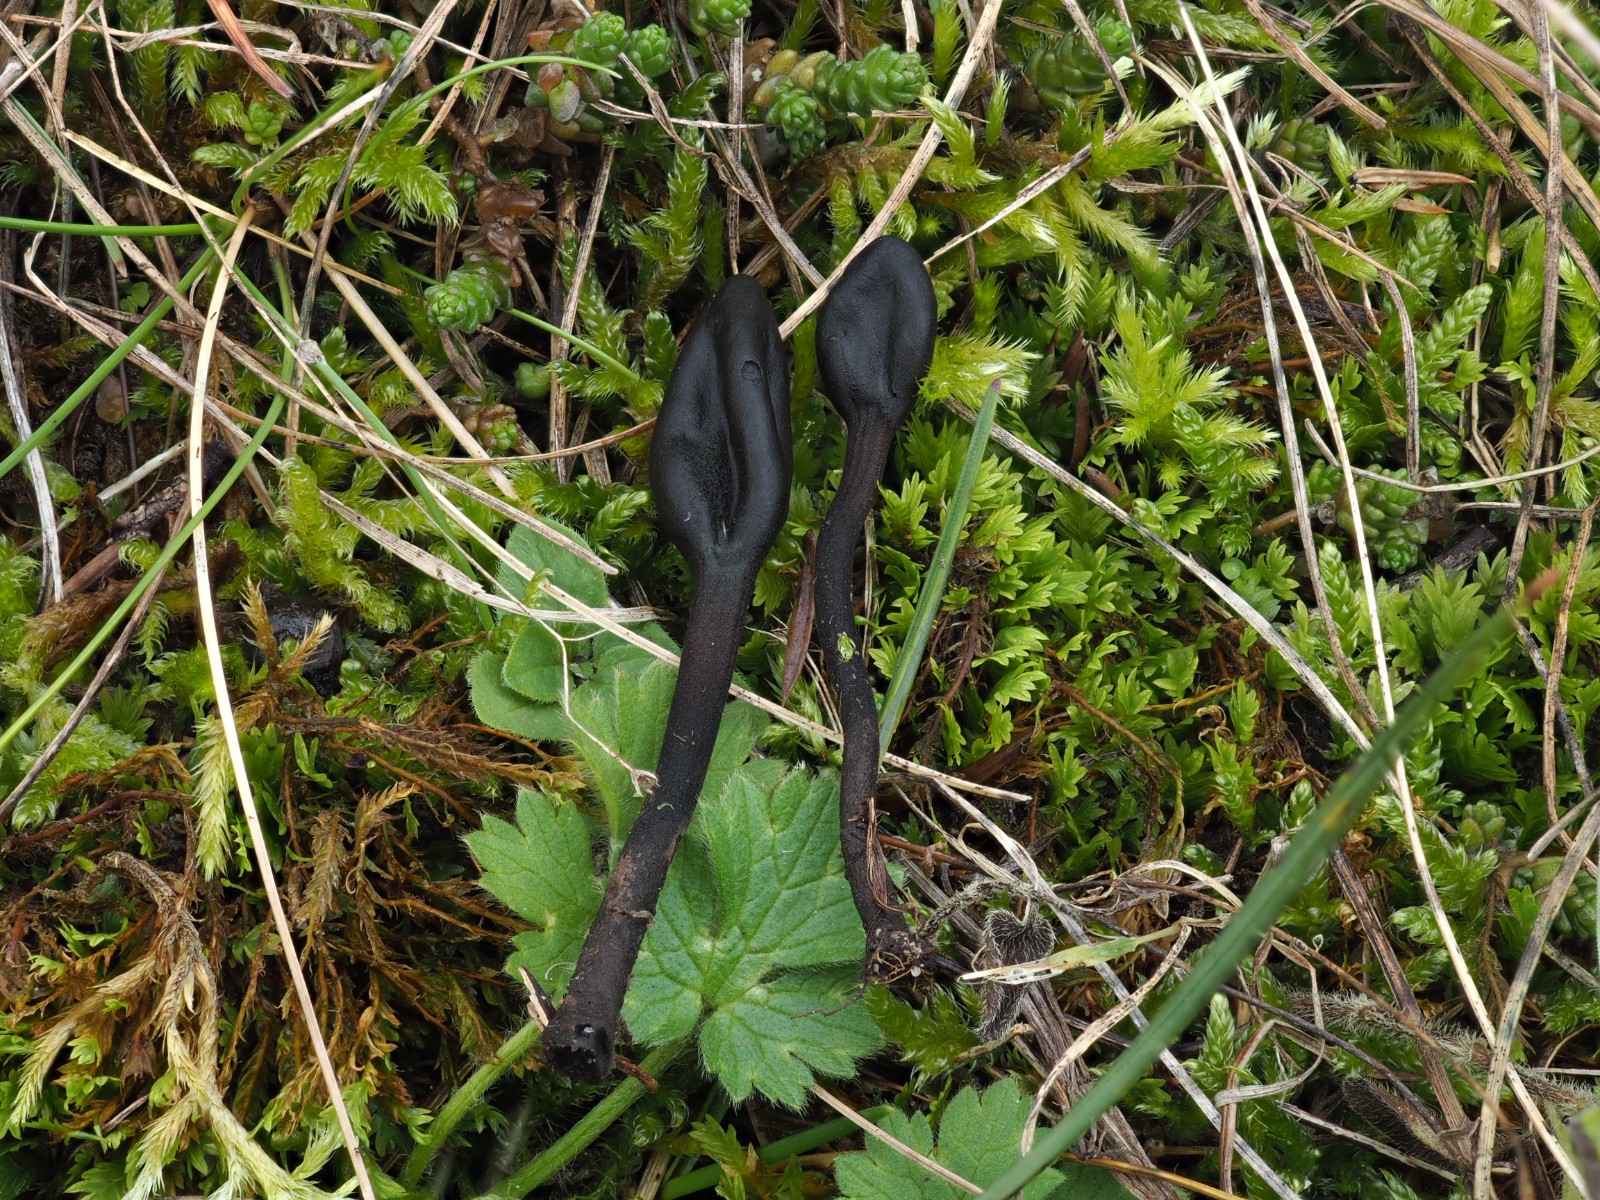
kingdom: Fungi
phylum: Ascomycota
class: Geoglossomycetes
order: Geoglossales
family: Geoglossaceae
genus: Trichoglossum
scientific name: Trichoglossum hirsutum
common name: håret jordtunge
